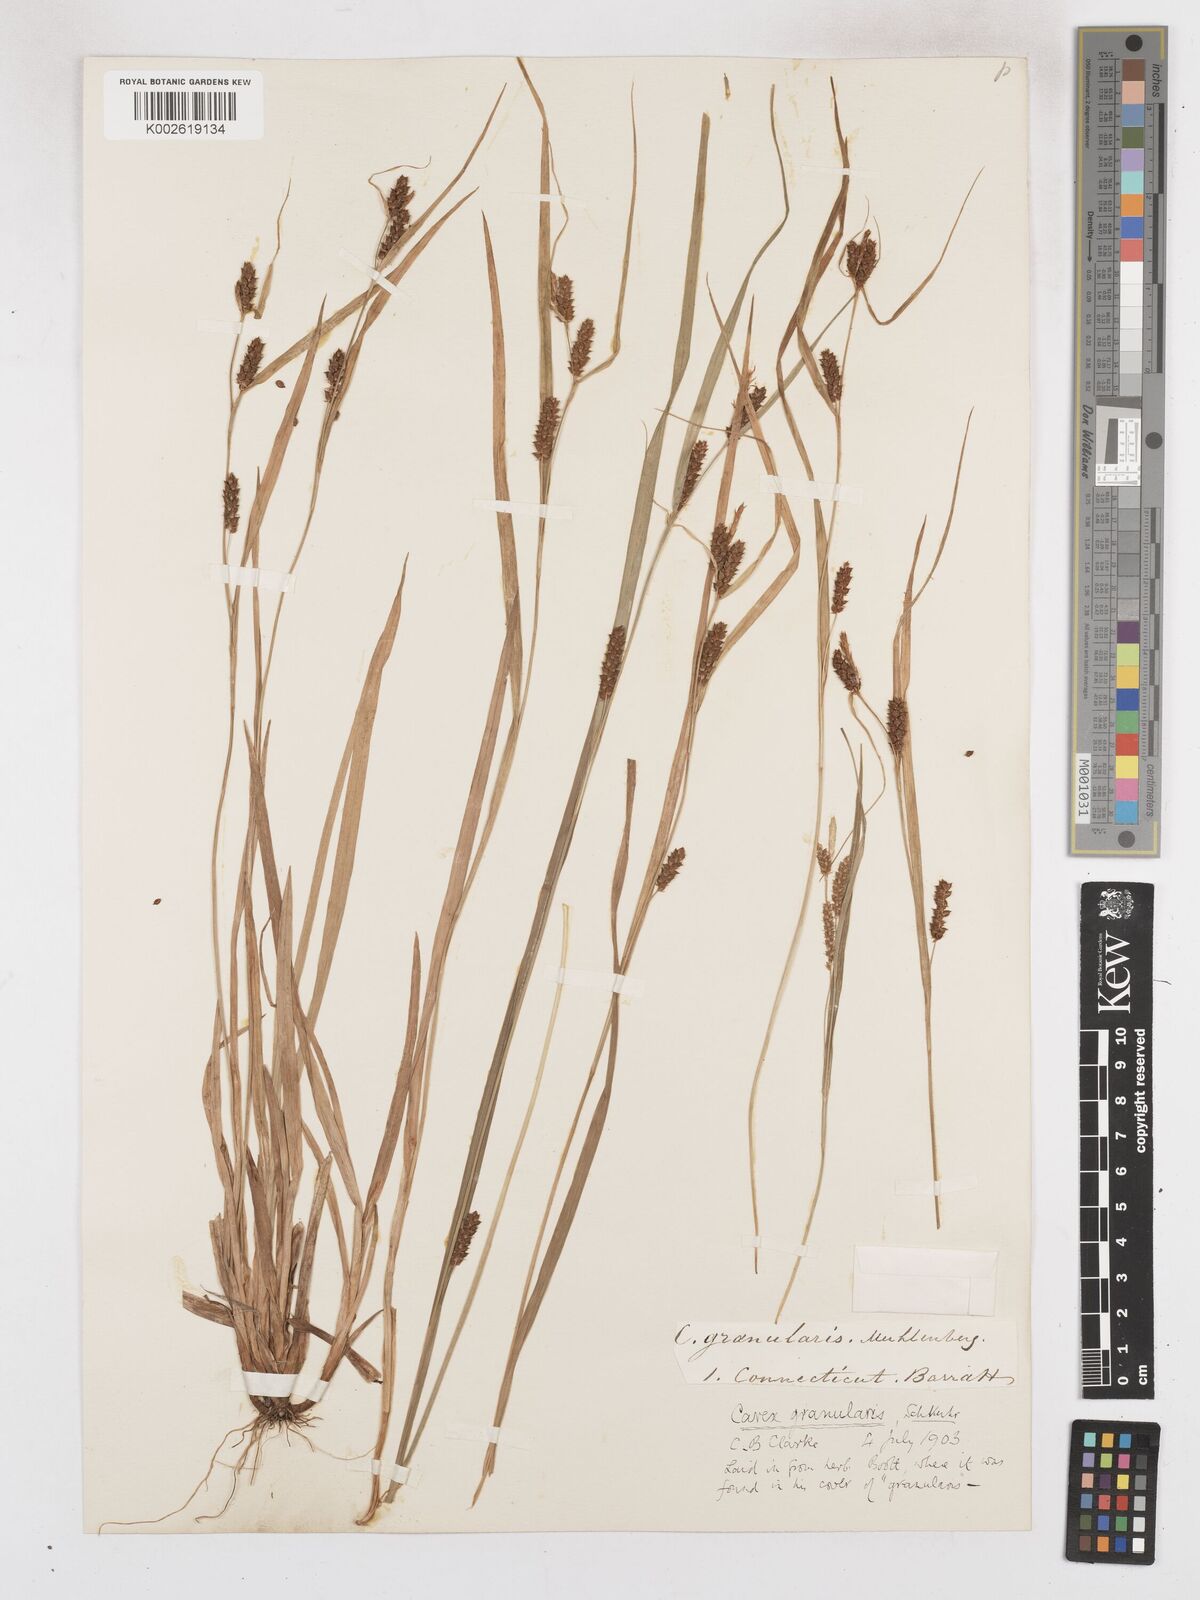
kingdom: Plantae
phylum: Tracheophyta
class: Liliopsida
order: Poales
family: Cyperaceae
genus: Carex
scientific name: Carex granularis
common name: Granular sedge
